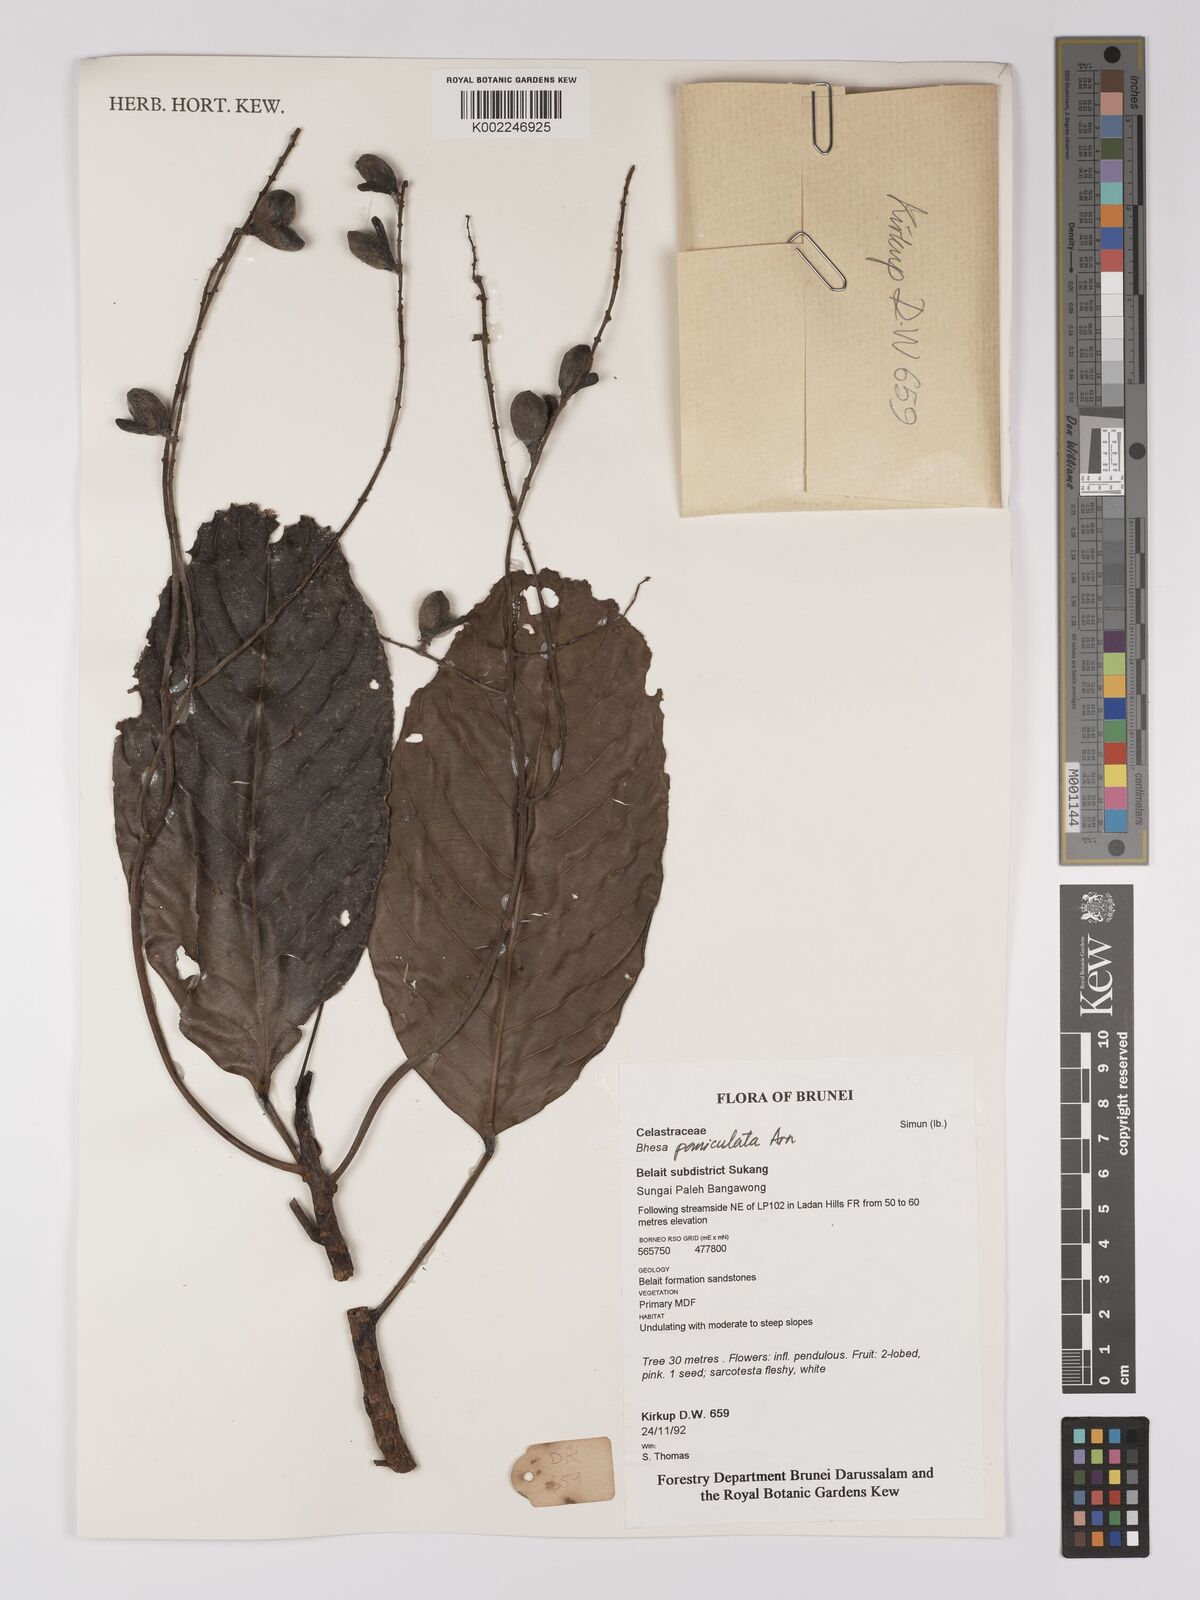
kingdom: Plantae
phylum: Tracheophyta
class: Magnoliopsida
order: Malpighiales
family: Centroplacaceae
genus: Bhesa
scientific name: Bhesa paniculata
